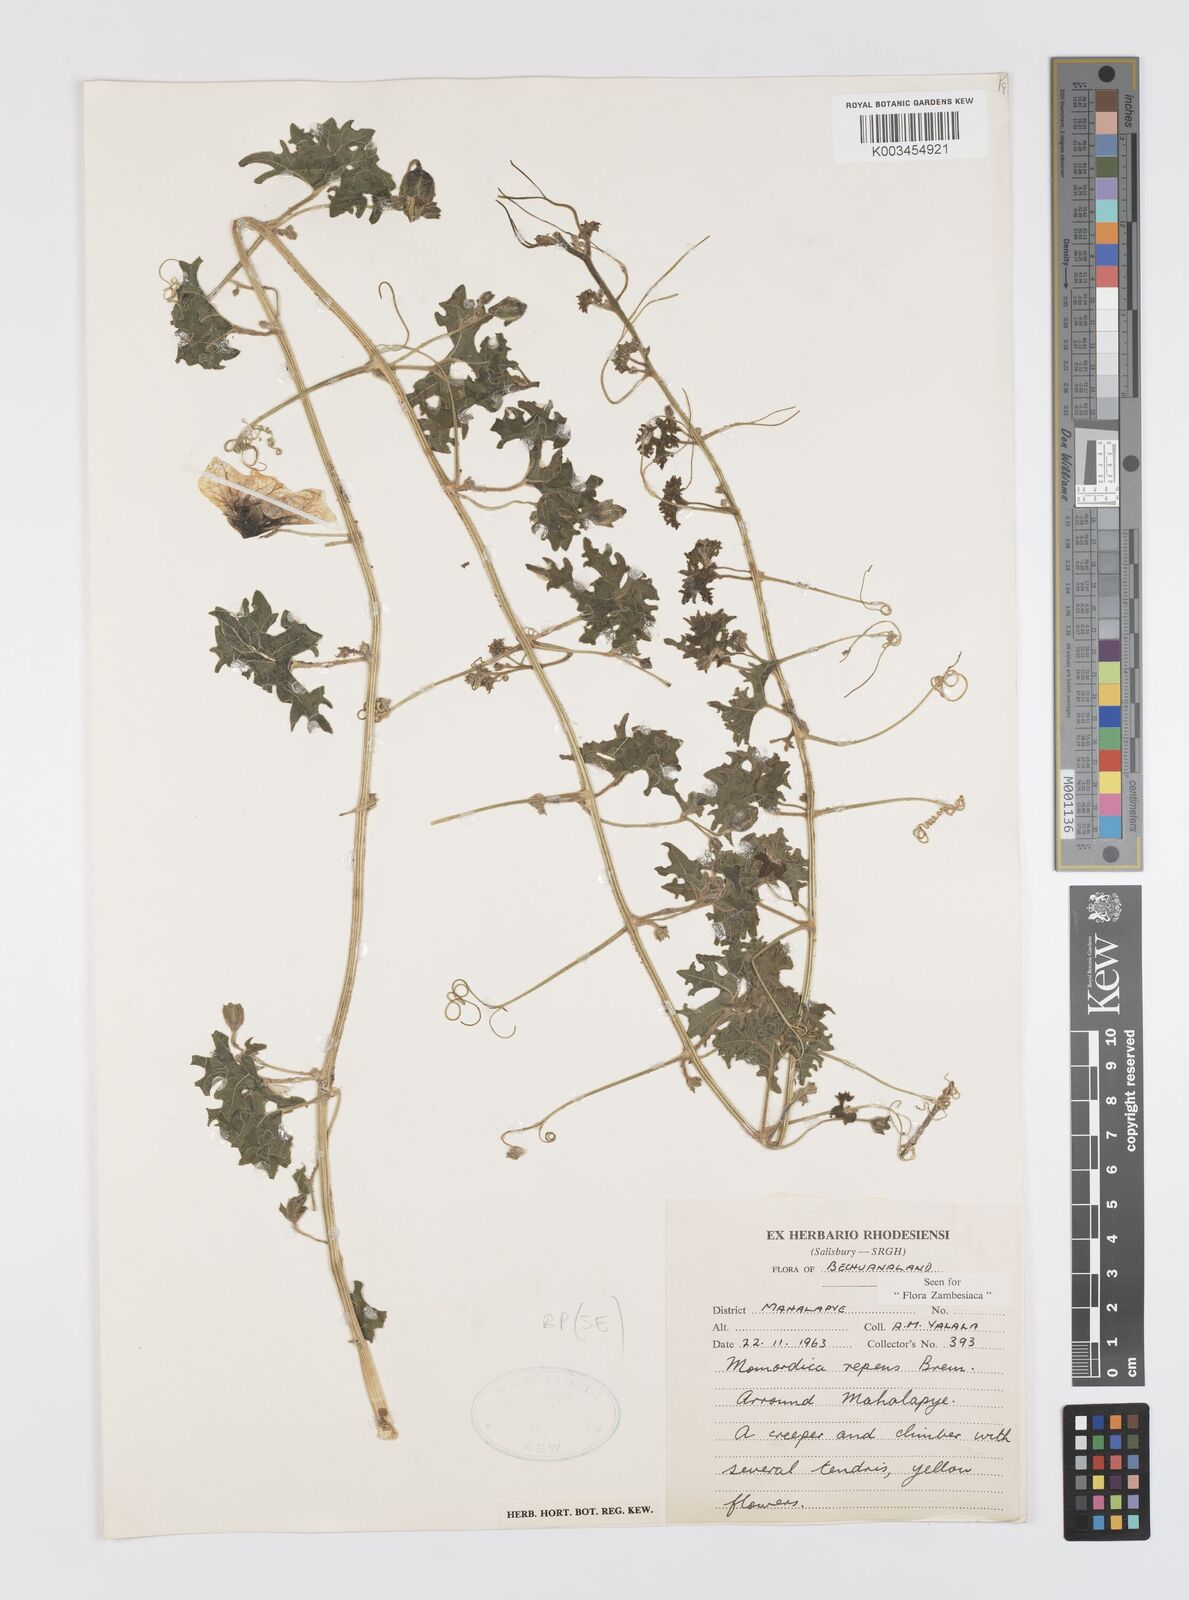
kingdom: Plantae
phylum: Tracheophyta
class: Magnoliopsida
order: Cucurbitales
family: Cucurbitaceae
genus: Momordica
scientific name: Momordica repens
